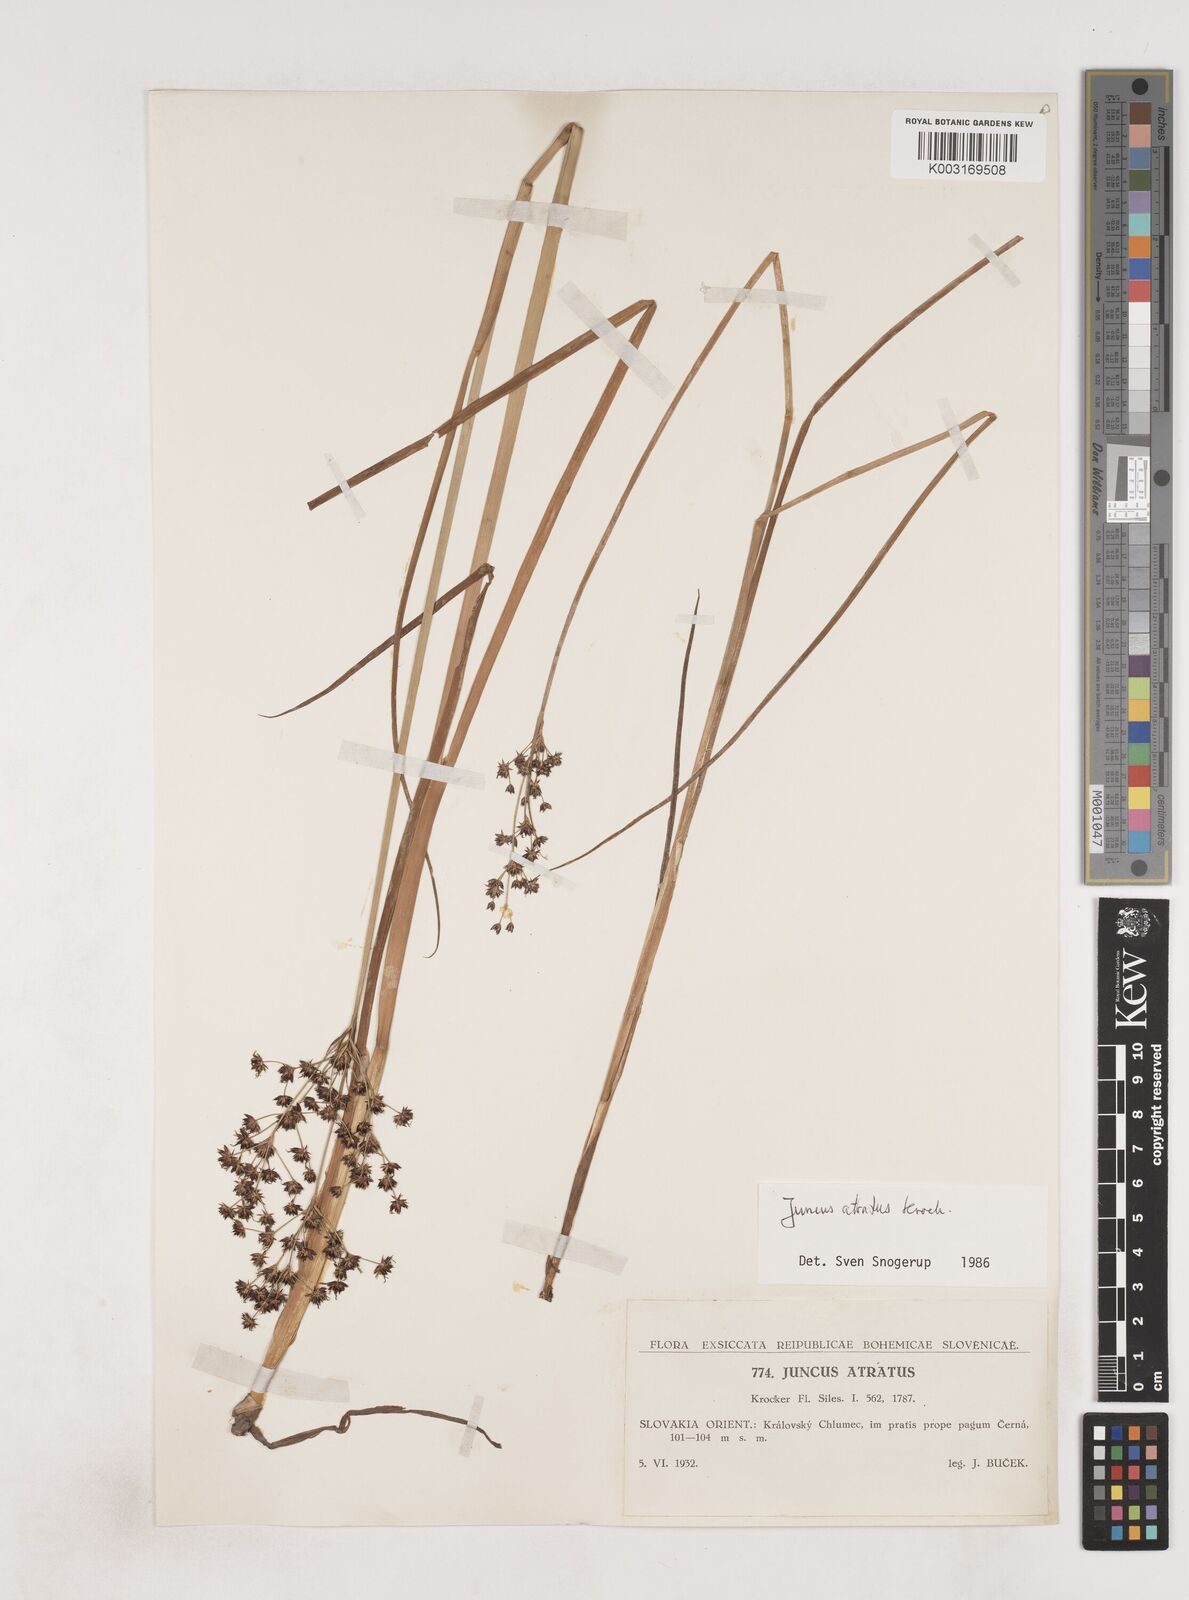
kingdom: Plantae
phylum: Tracheophyta
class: Liliopsida
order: Poales
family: Juncaceae
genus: Juncus
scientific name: Juncus atratus
